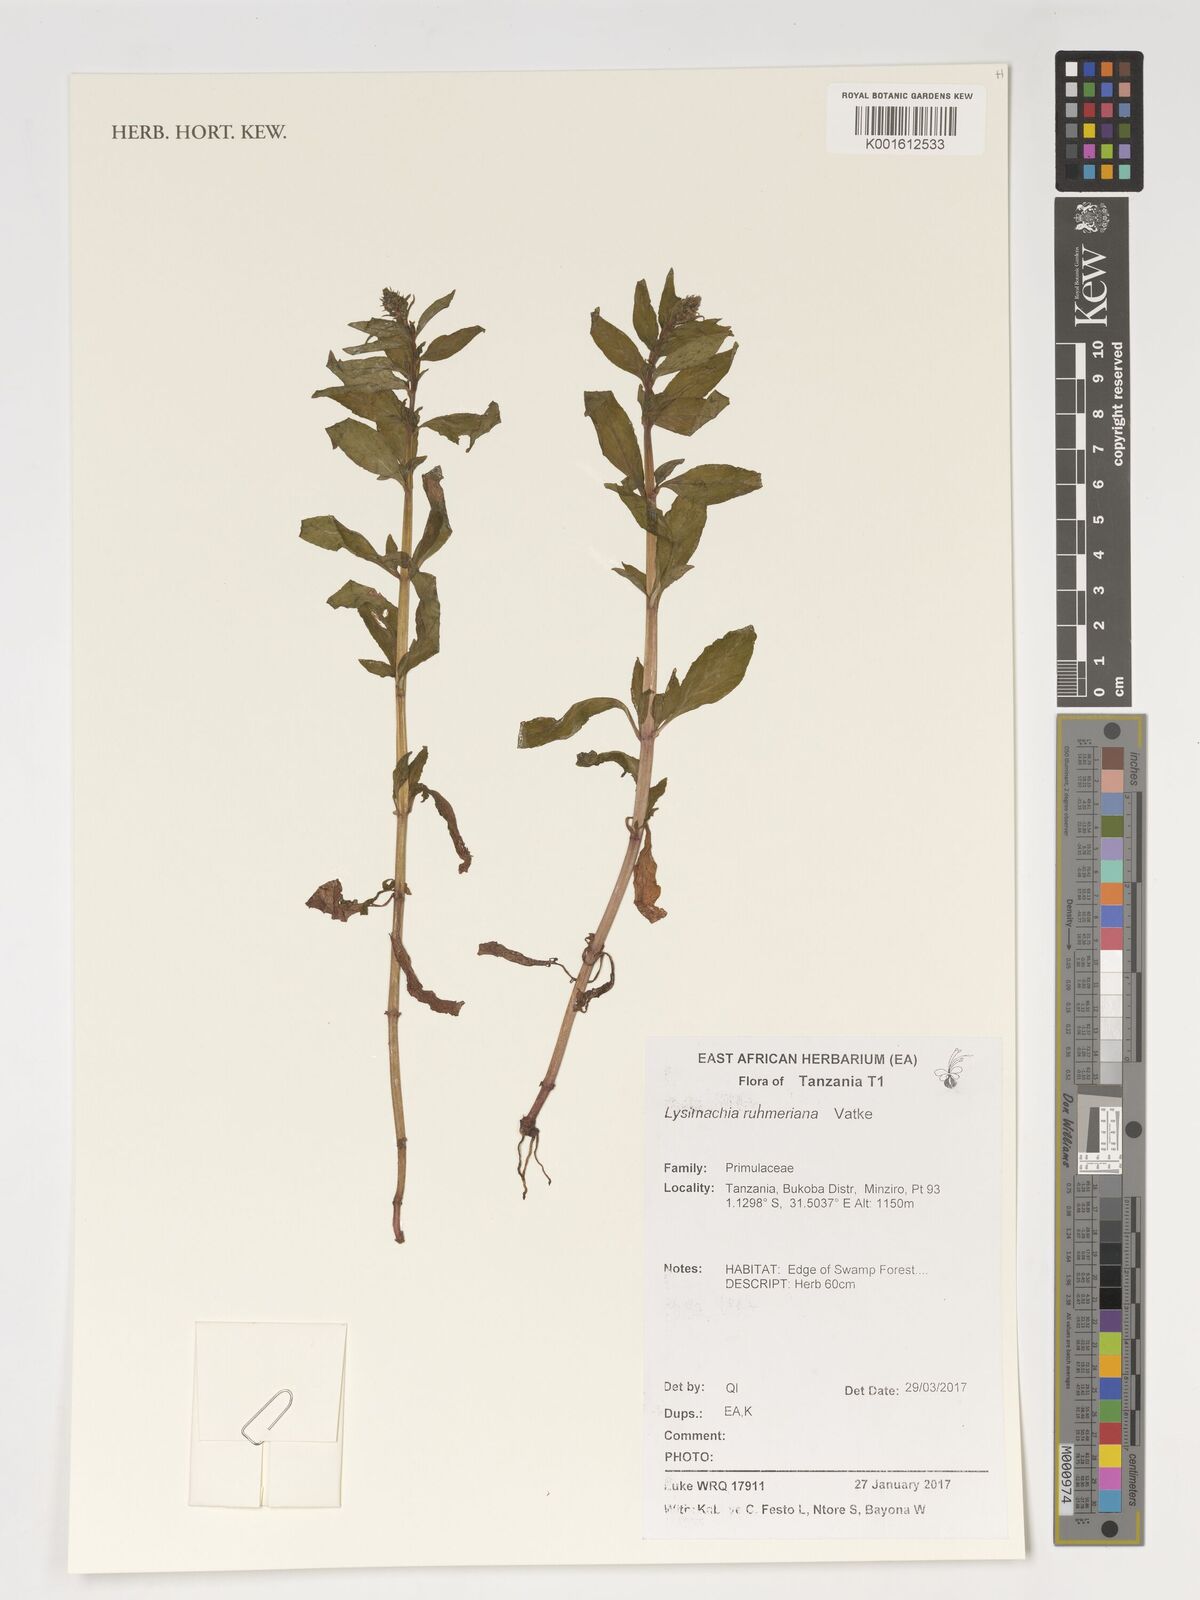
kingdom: Plantae
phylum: Tracheophyta
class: Magnoliopsida
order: Ericales
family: Primulaceae
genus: Lysimachia
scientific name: Lysimachia ruhmeriana
